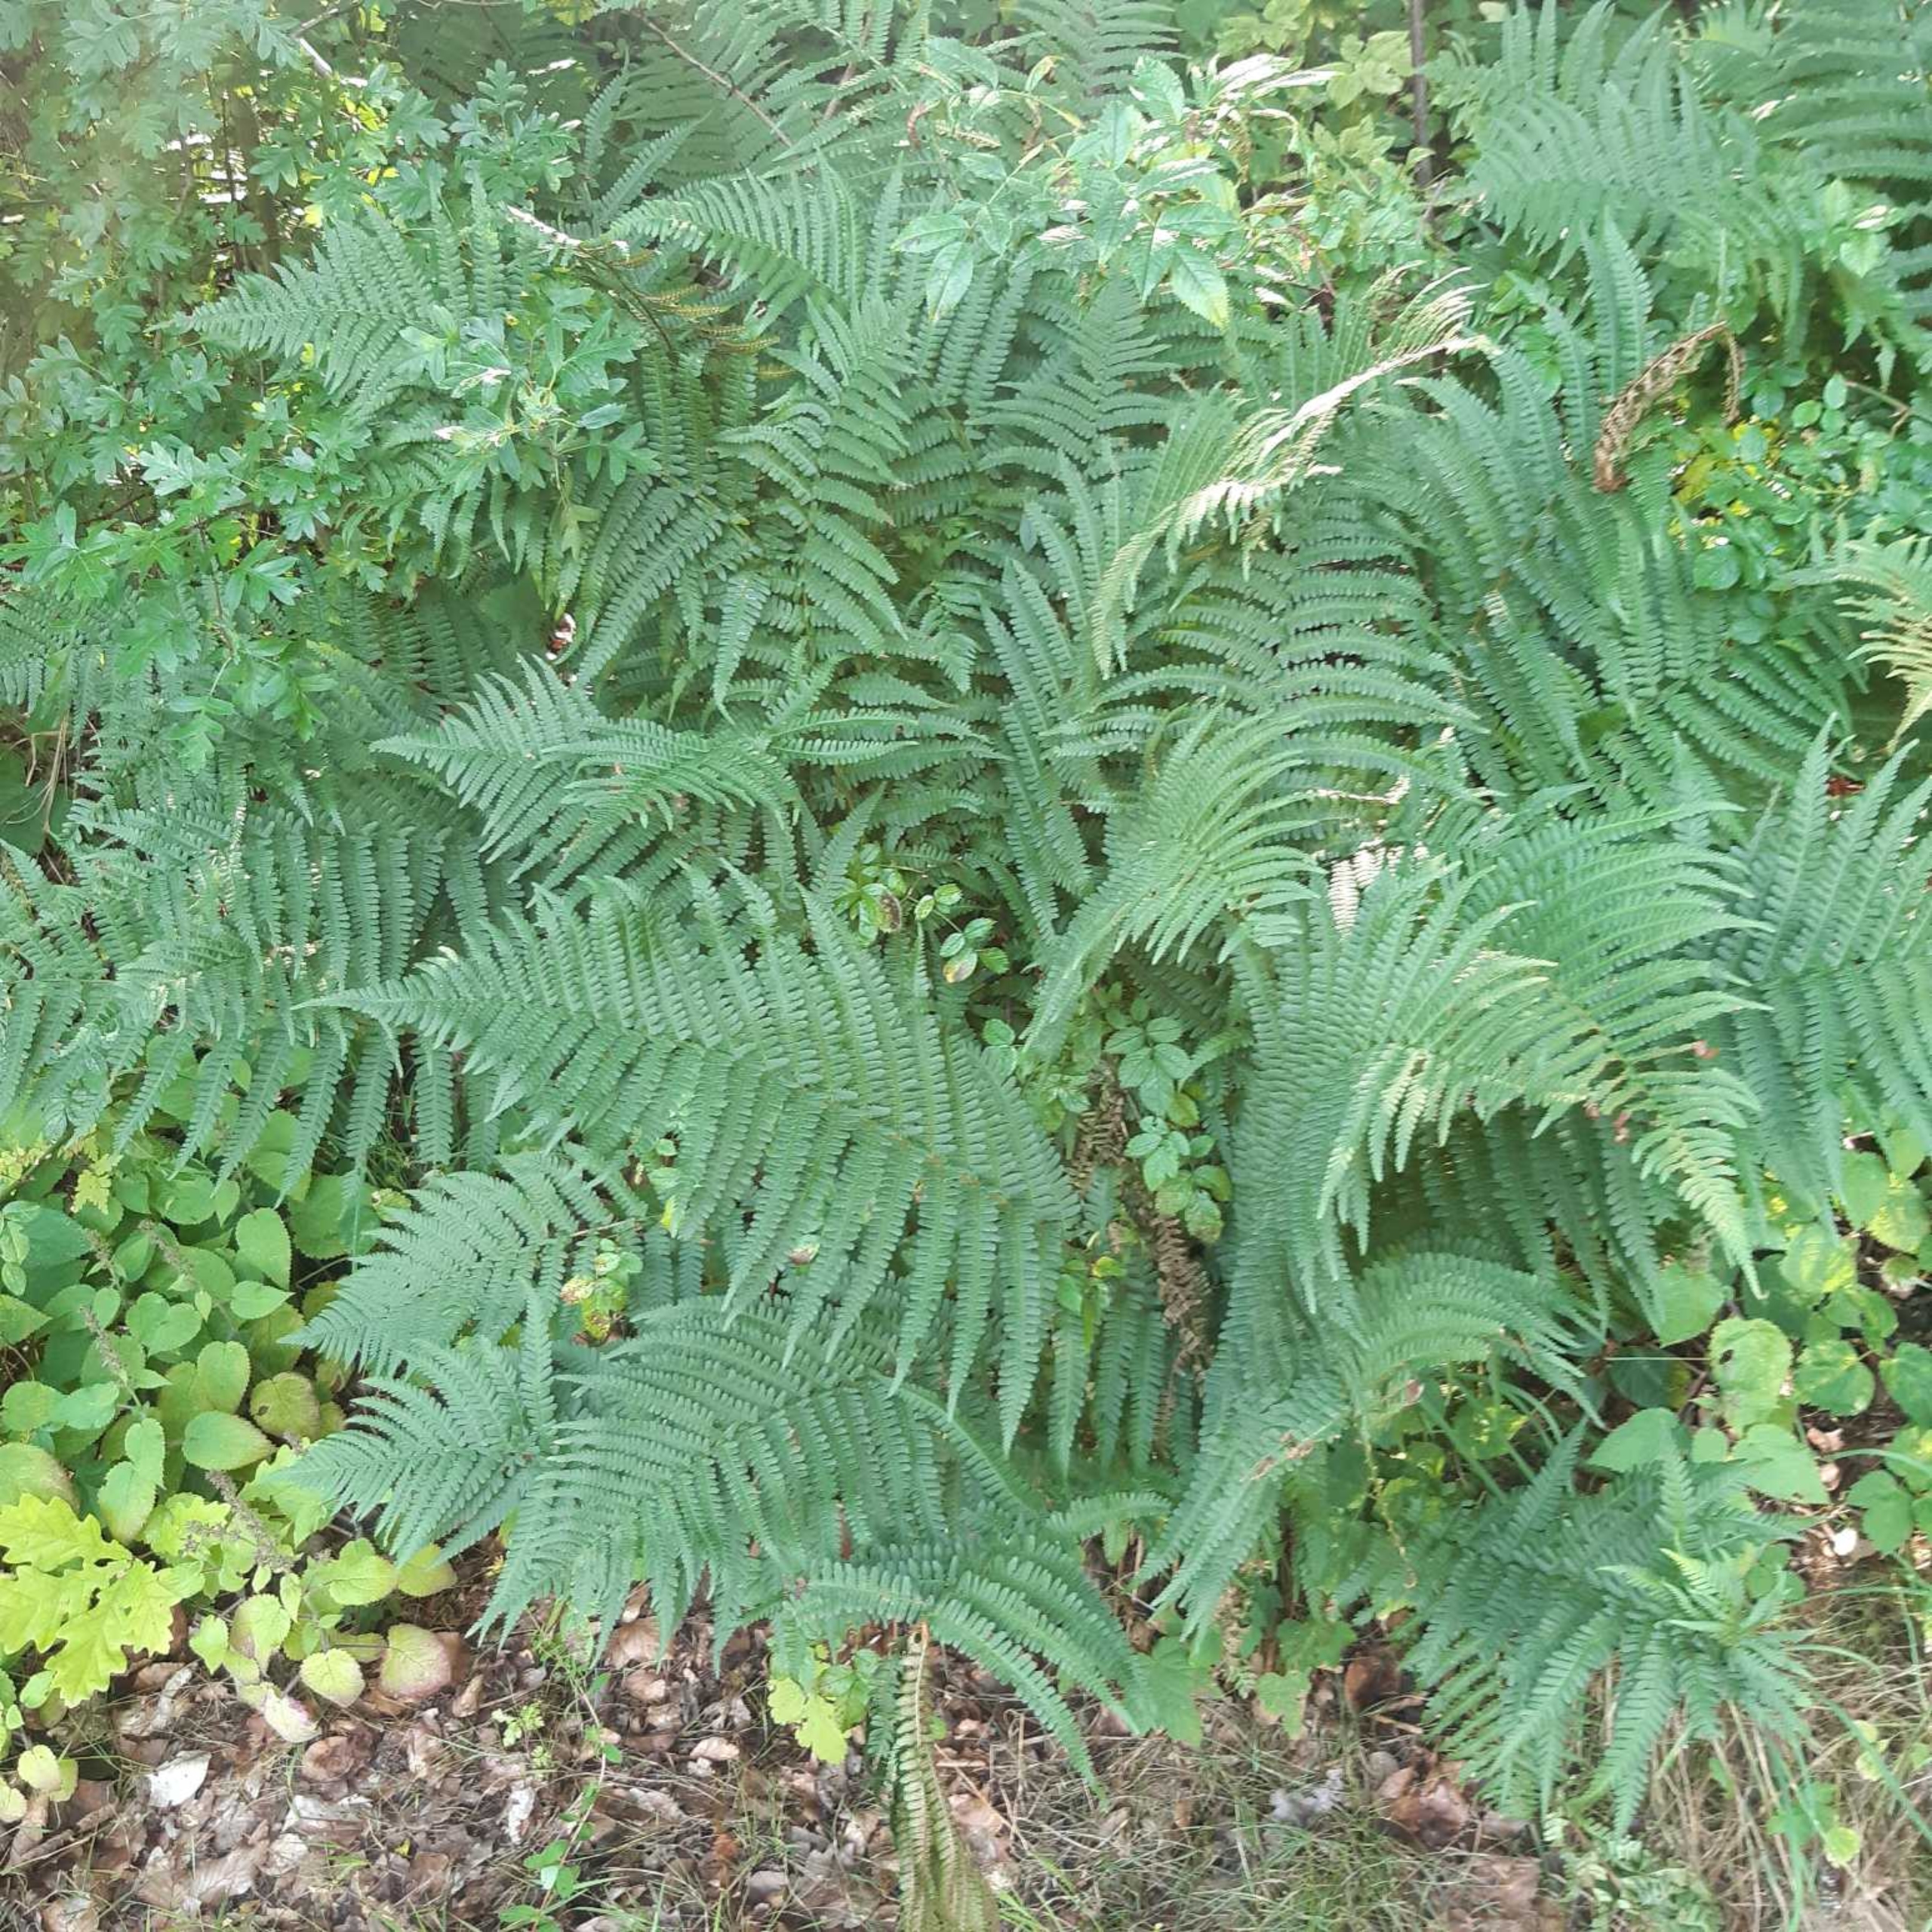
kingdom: Plantae
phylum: Tracheophyta
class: Polypodiopsida
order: Polypodiales
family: Dryopteridaceae
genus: Dryopteris
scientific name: Dryopteris filix-mas
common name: Almindelig mangeløv
